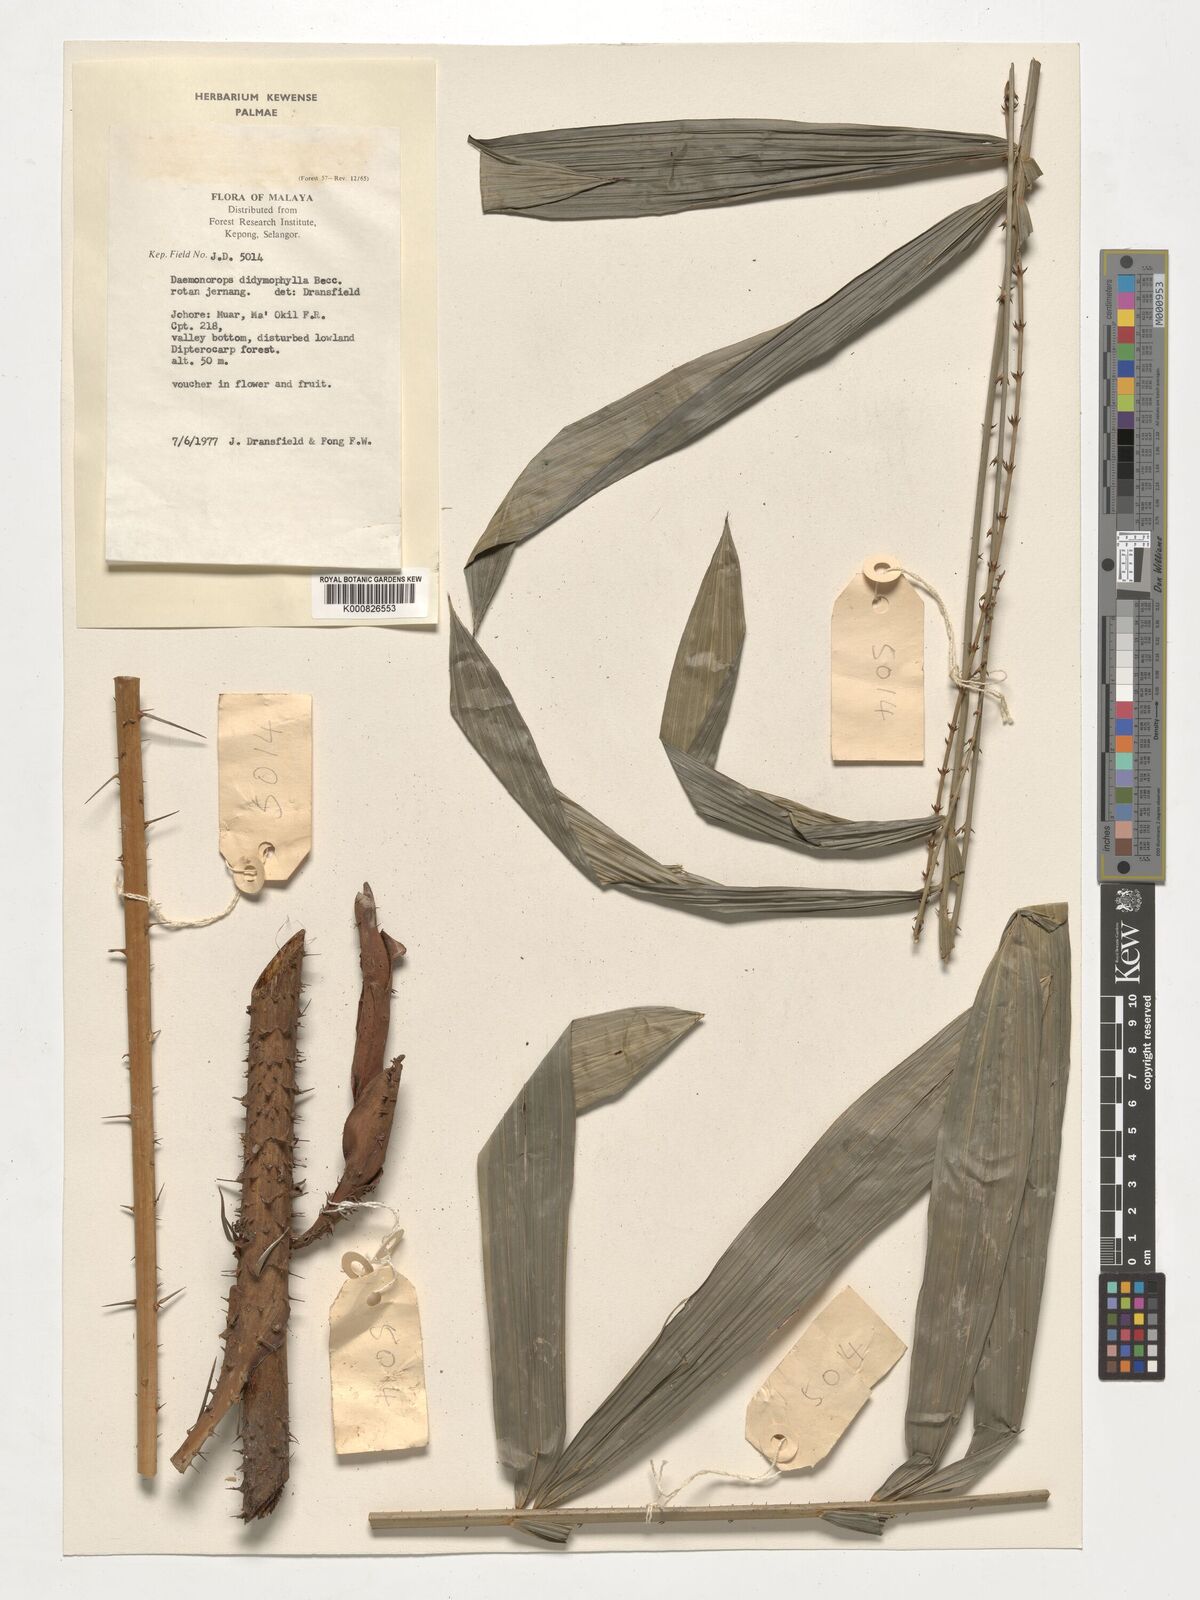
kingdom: Plantae
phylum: Tracheophyta
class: Liliopsida
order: Arecales
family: Arecaceae
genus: Calamus
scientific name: Calamus gracilipes
